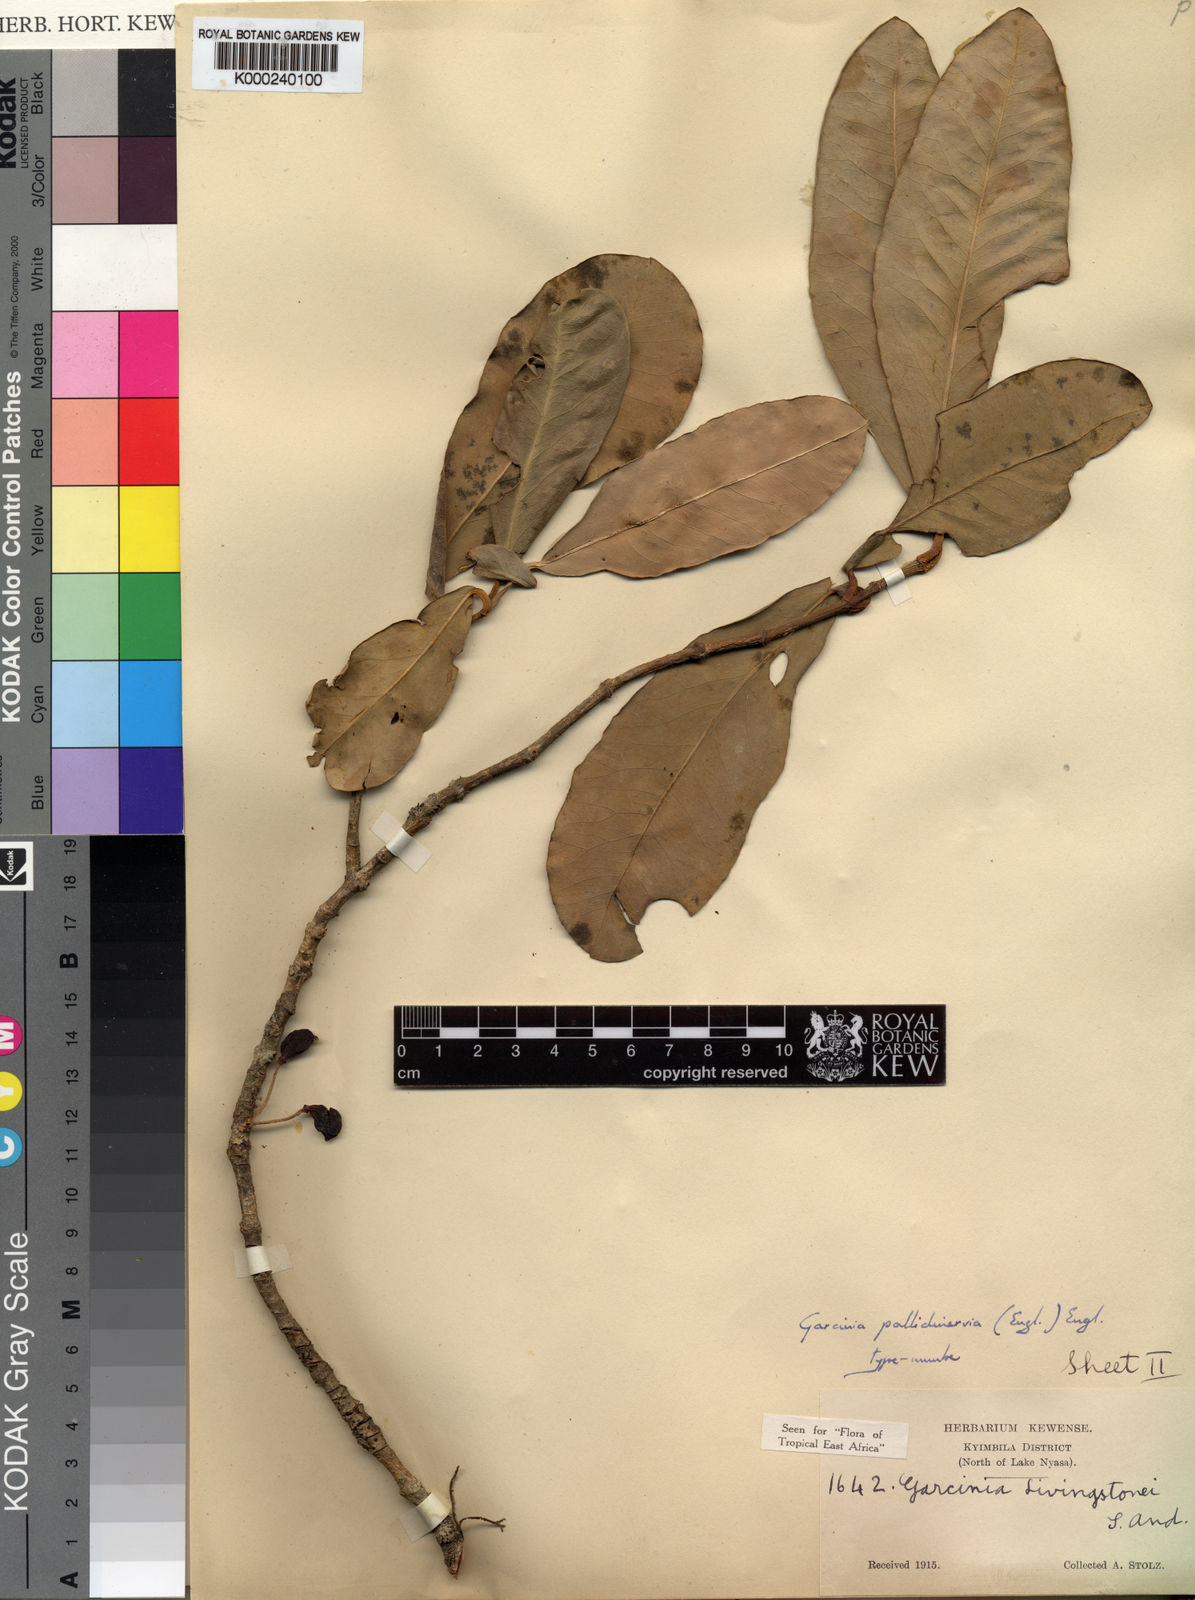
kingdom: Plantae
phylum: Tracheophyta
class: Magnoliopsida
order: Malpighiales
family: Clusiaceae
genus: Garcinia
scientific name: Garcinia livingstonei
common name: African mangosteen
